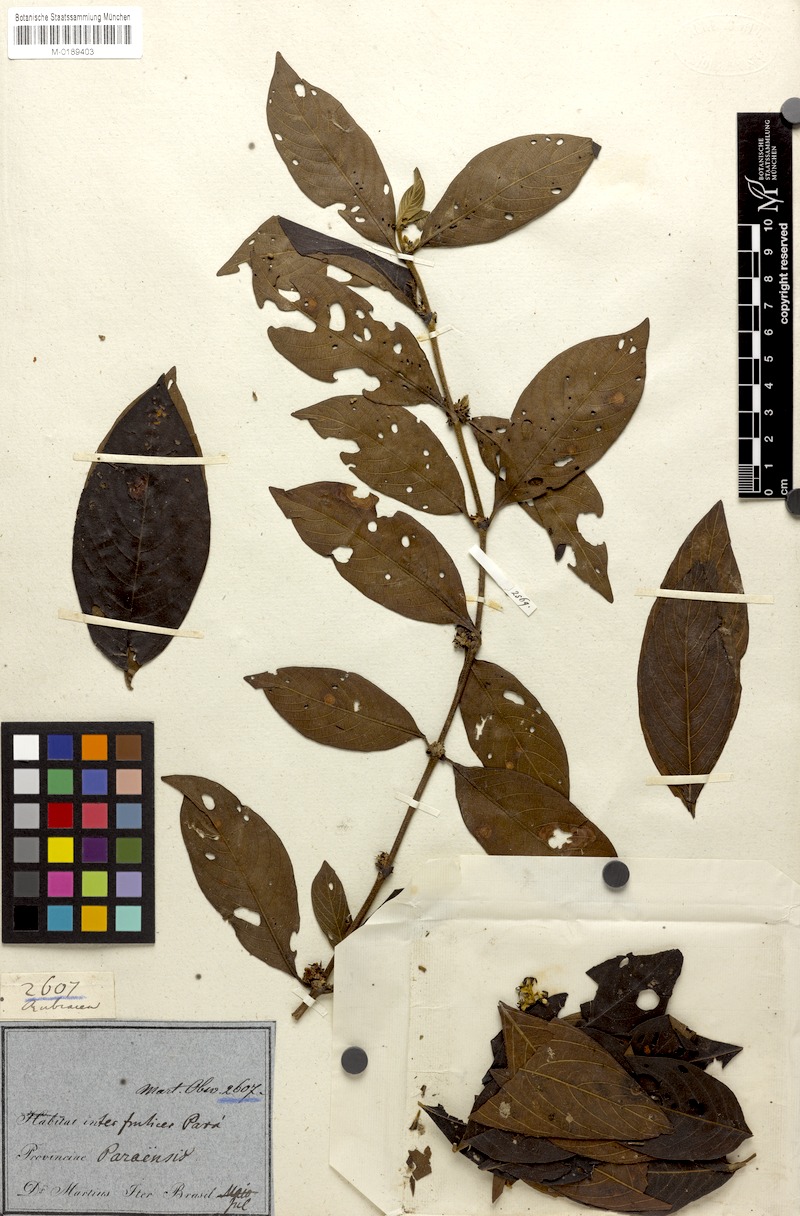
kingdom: Plantae
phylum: Tracheophyta
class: Magnoliopsida
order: Gentianales
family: Rubiaceae
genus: Sabicea
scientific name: Sabicea panamensis
